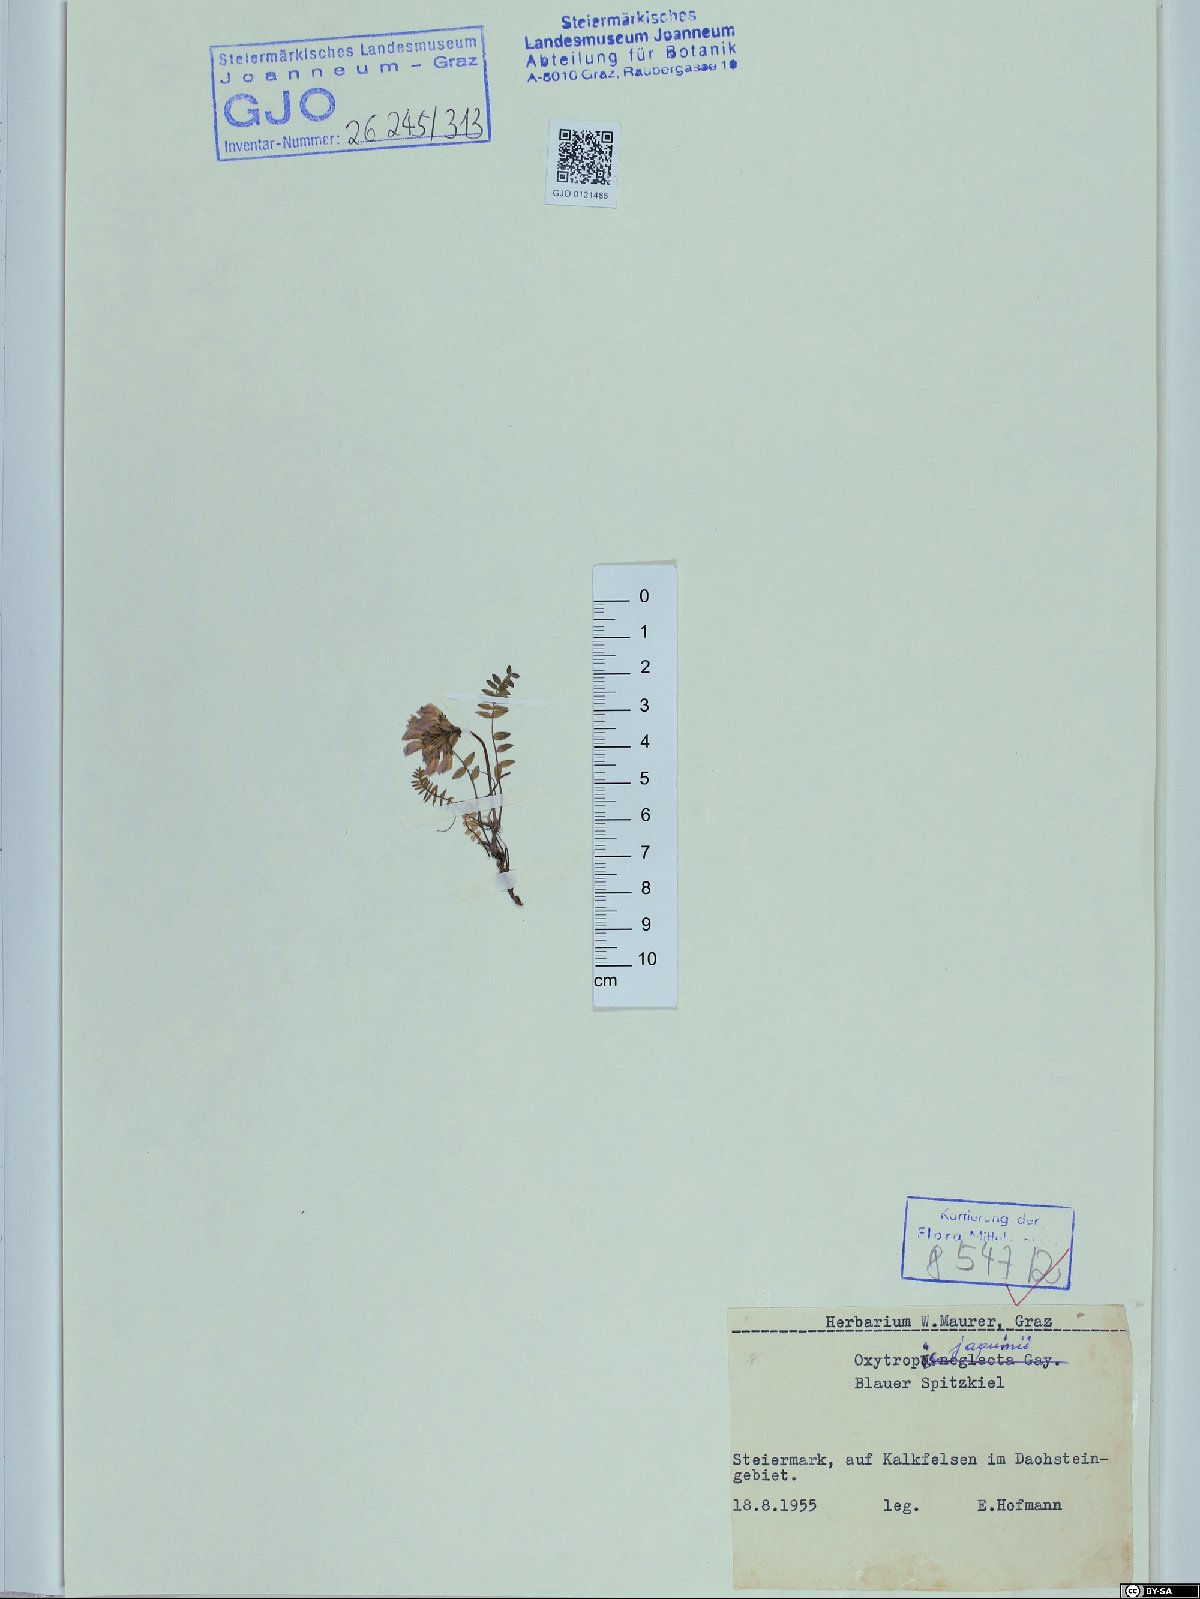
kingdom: Plantae
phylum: Tracheophyta
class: Magnoliopsida
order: Fabales
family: Fabaceae
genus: Oxytropis
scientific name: Oxytropis montana
